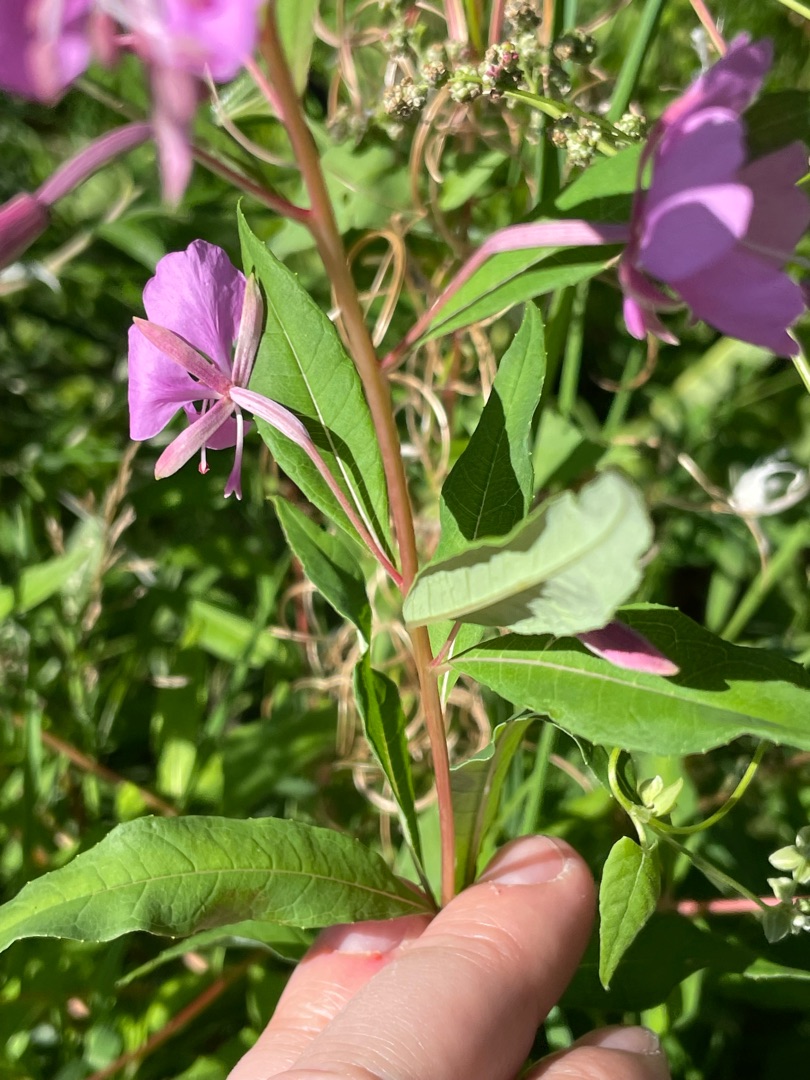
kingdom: Plantae
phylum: Tracheophyta
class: Magnoliopsida
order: Myrtales
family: Onagraceae
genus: Chamaenerion
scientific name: Chamaenerion angustifolium
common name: Gederams
